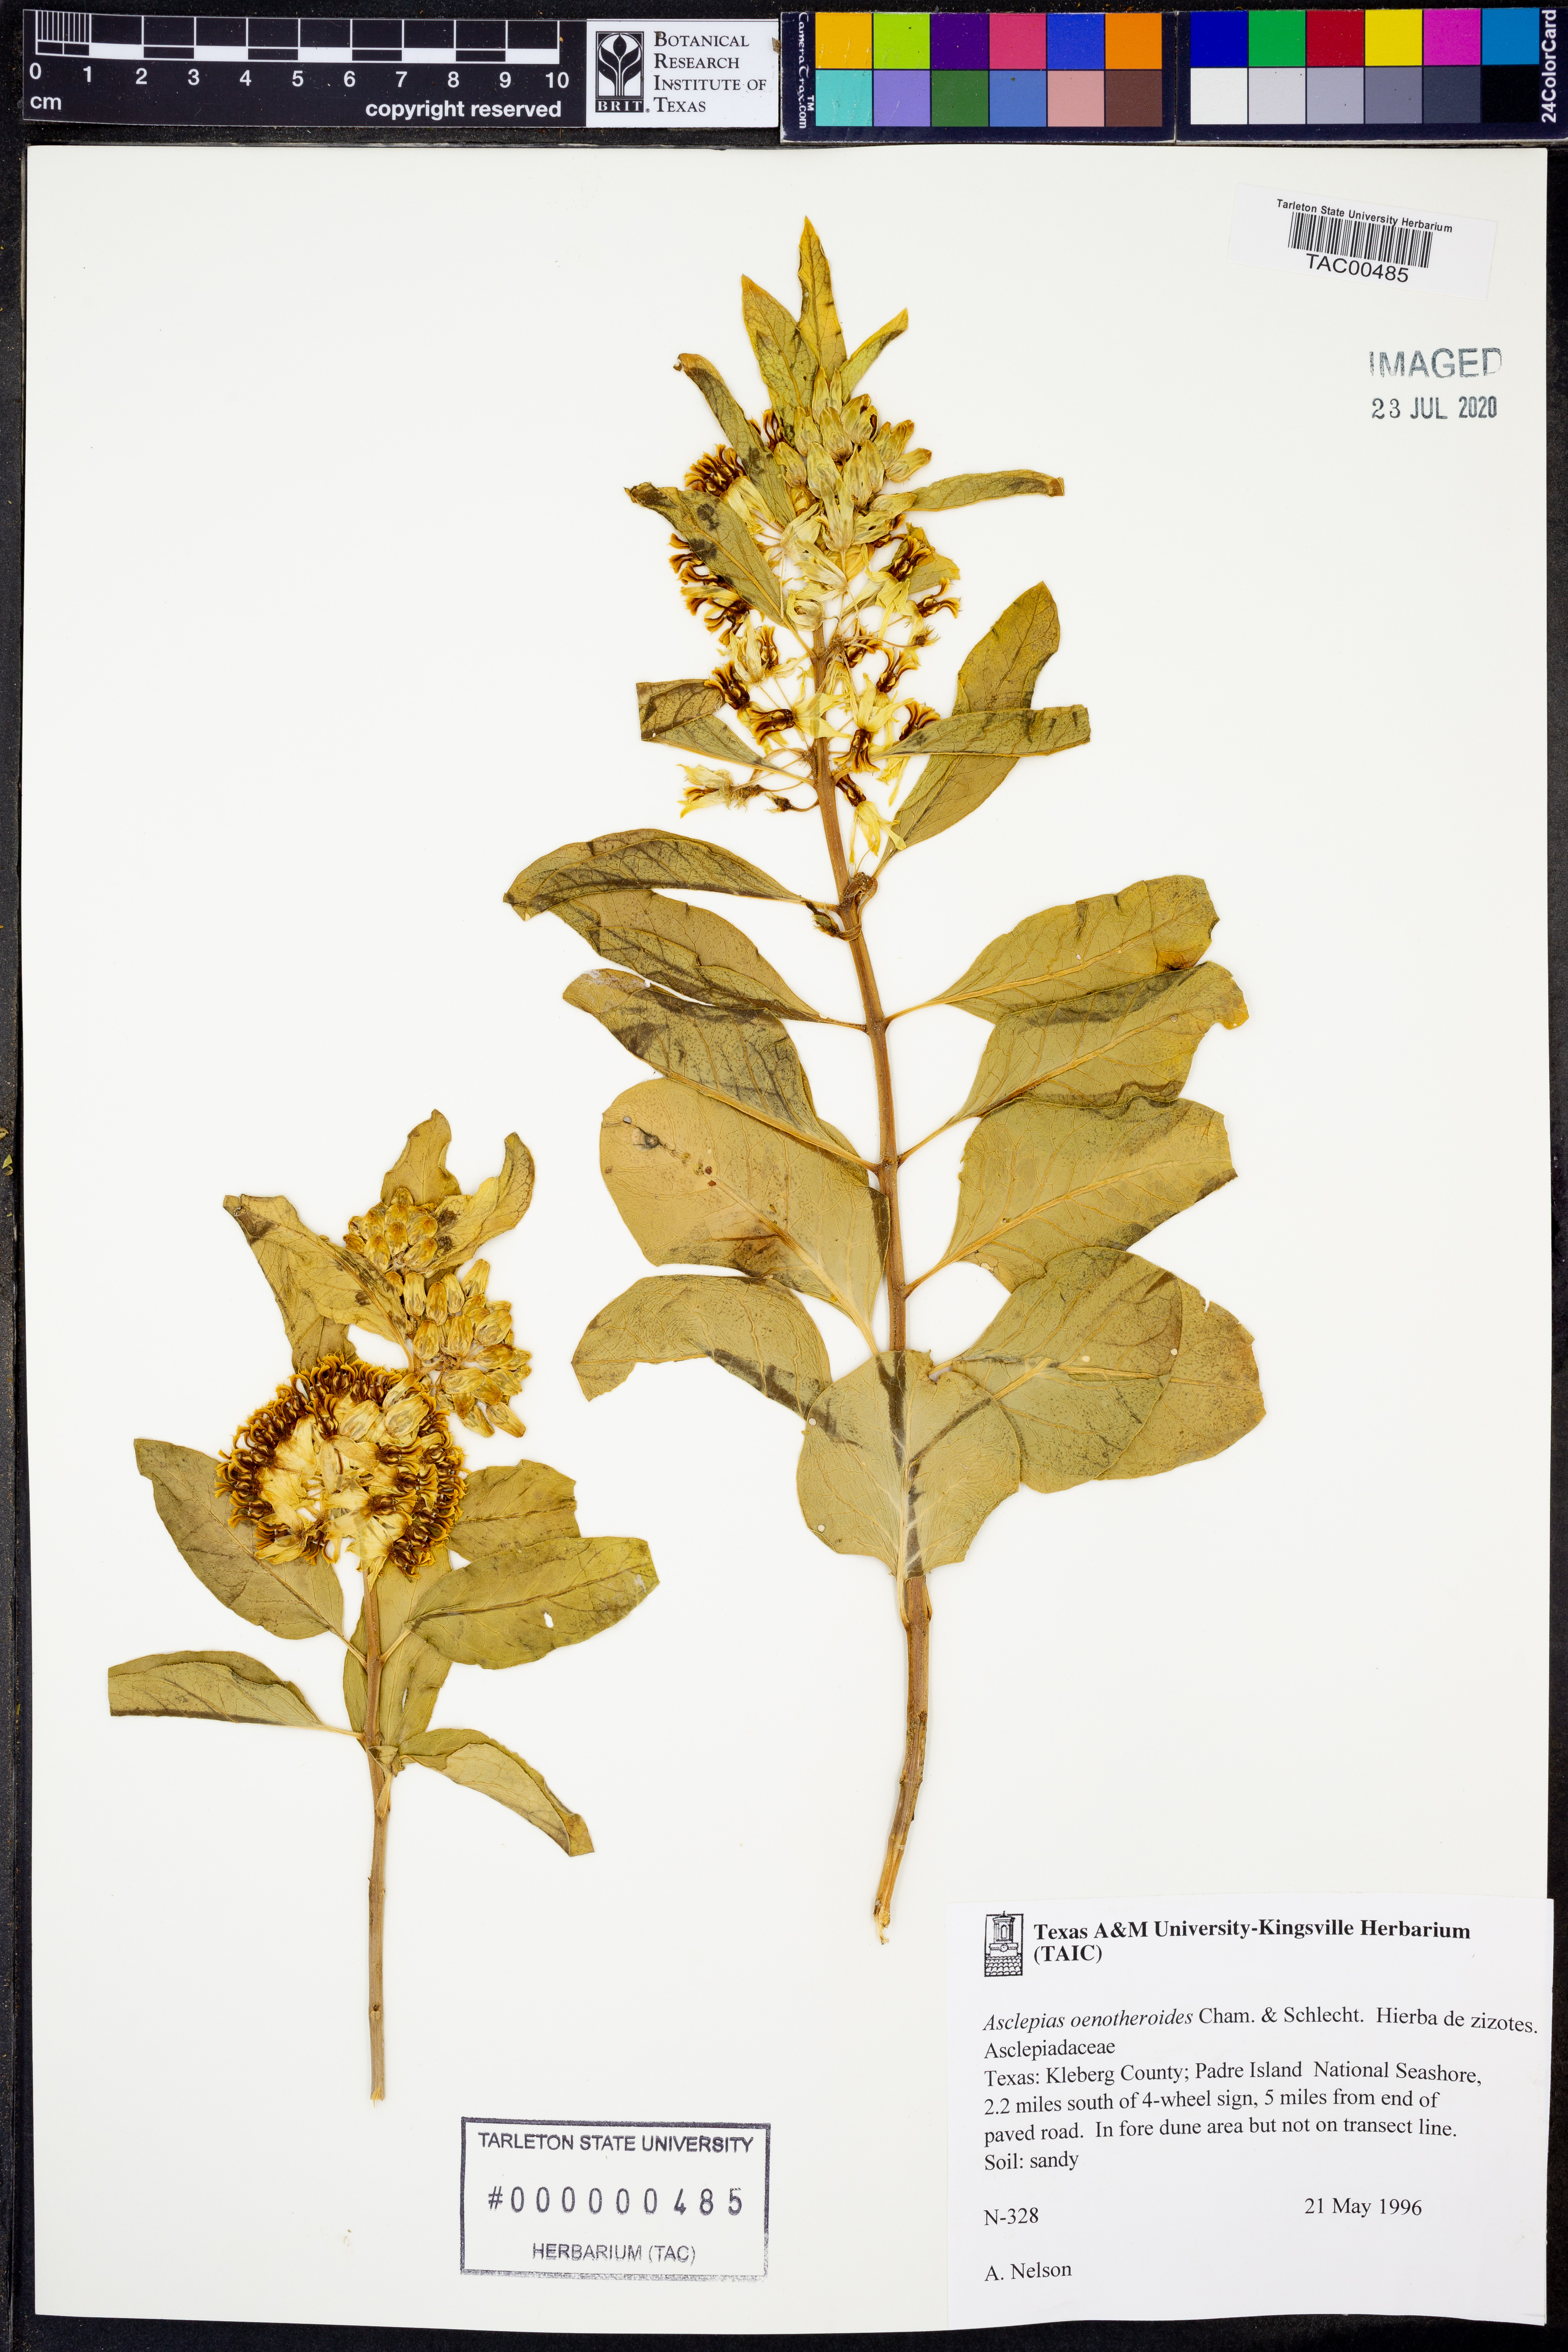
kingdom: Plantae
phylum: Tracheophyta
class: Magnoliopsida
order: Gentianales
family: Apocynaceae
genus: Asclepias
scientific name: Asclepias oenotheroides
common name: Zizotes milkweed
